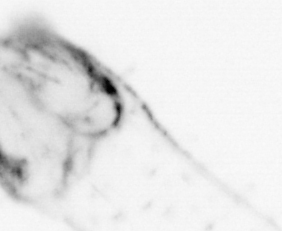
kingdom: Animalia
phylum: Chaetognatha
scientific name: Chaetognatha
